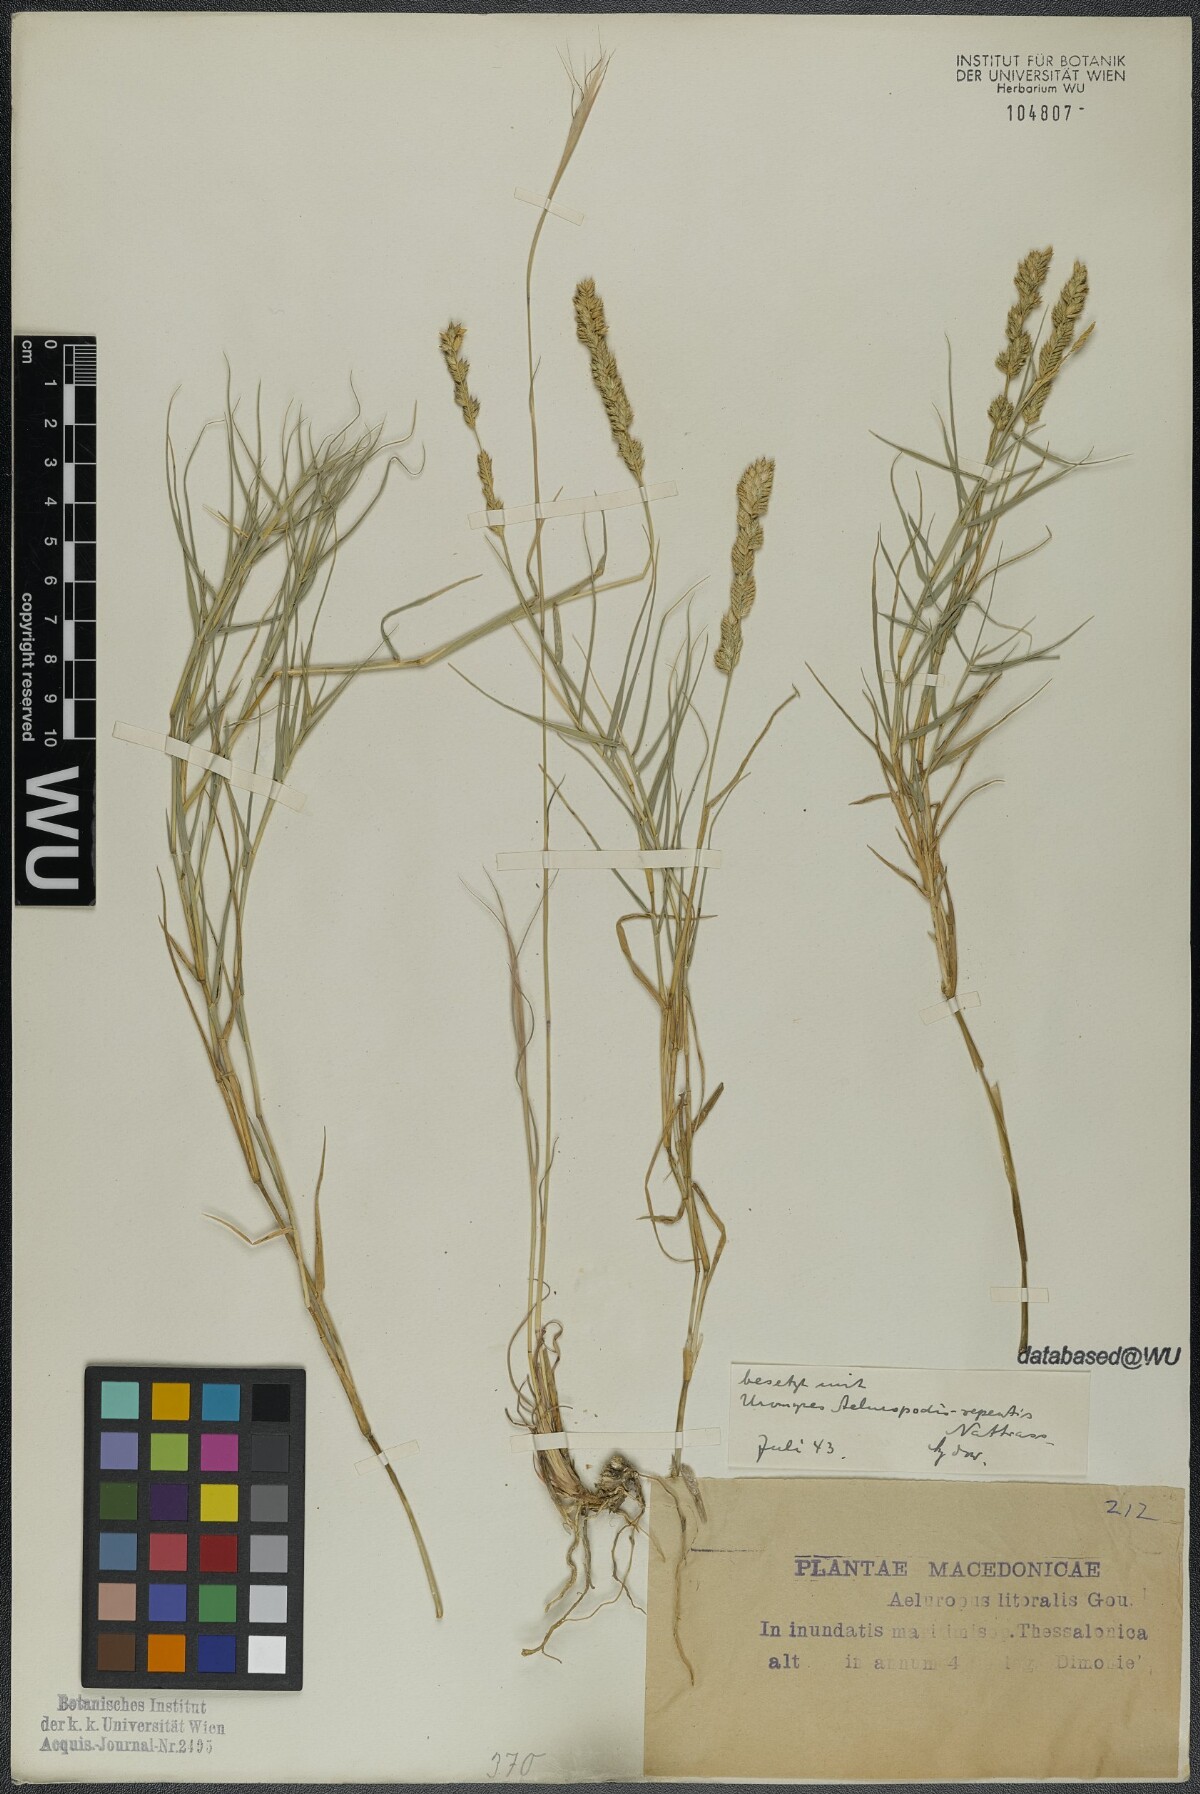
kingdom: Plantae
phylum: Tracheophyta
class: Liliopsida
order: Poales
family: Poaceae
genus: Aeluropus
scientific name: Aeluropus littoralis
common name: Indian walnut
